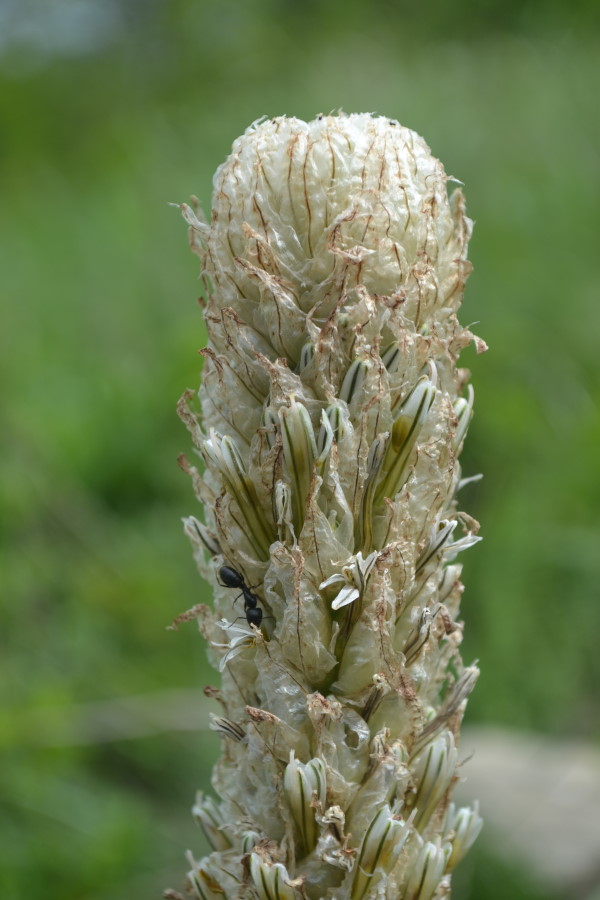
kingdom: Plantae
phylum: Tracheophyta
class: Liliopsida
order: Asparagales
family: Asphodelaceae
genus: Asphodeline
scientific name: Asphodeline taurica
